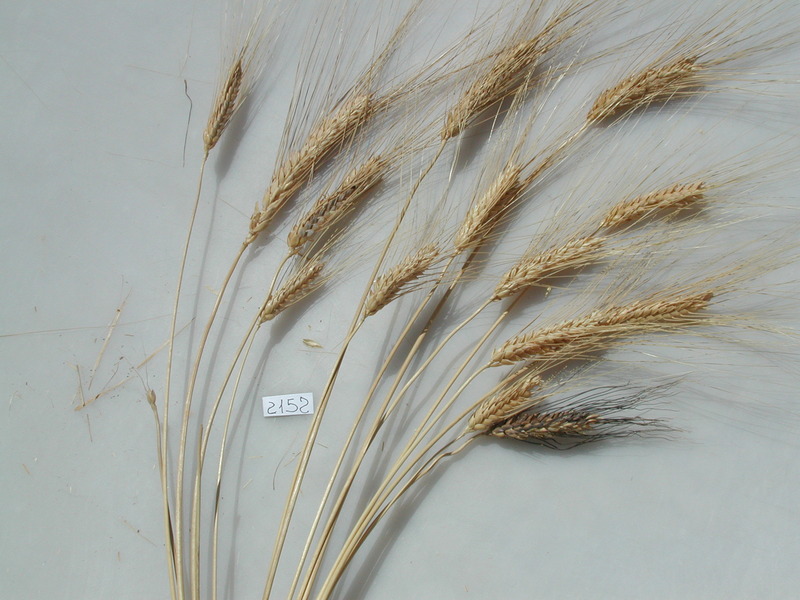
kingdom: Plantae
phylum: Tracheophyta
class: Liliopsida
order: Poales
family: Poaceae
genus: Triticum
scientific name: Triticum turgidum
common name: Wheat
